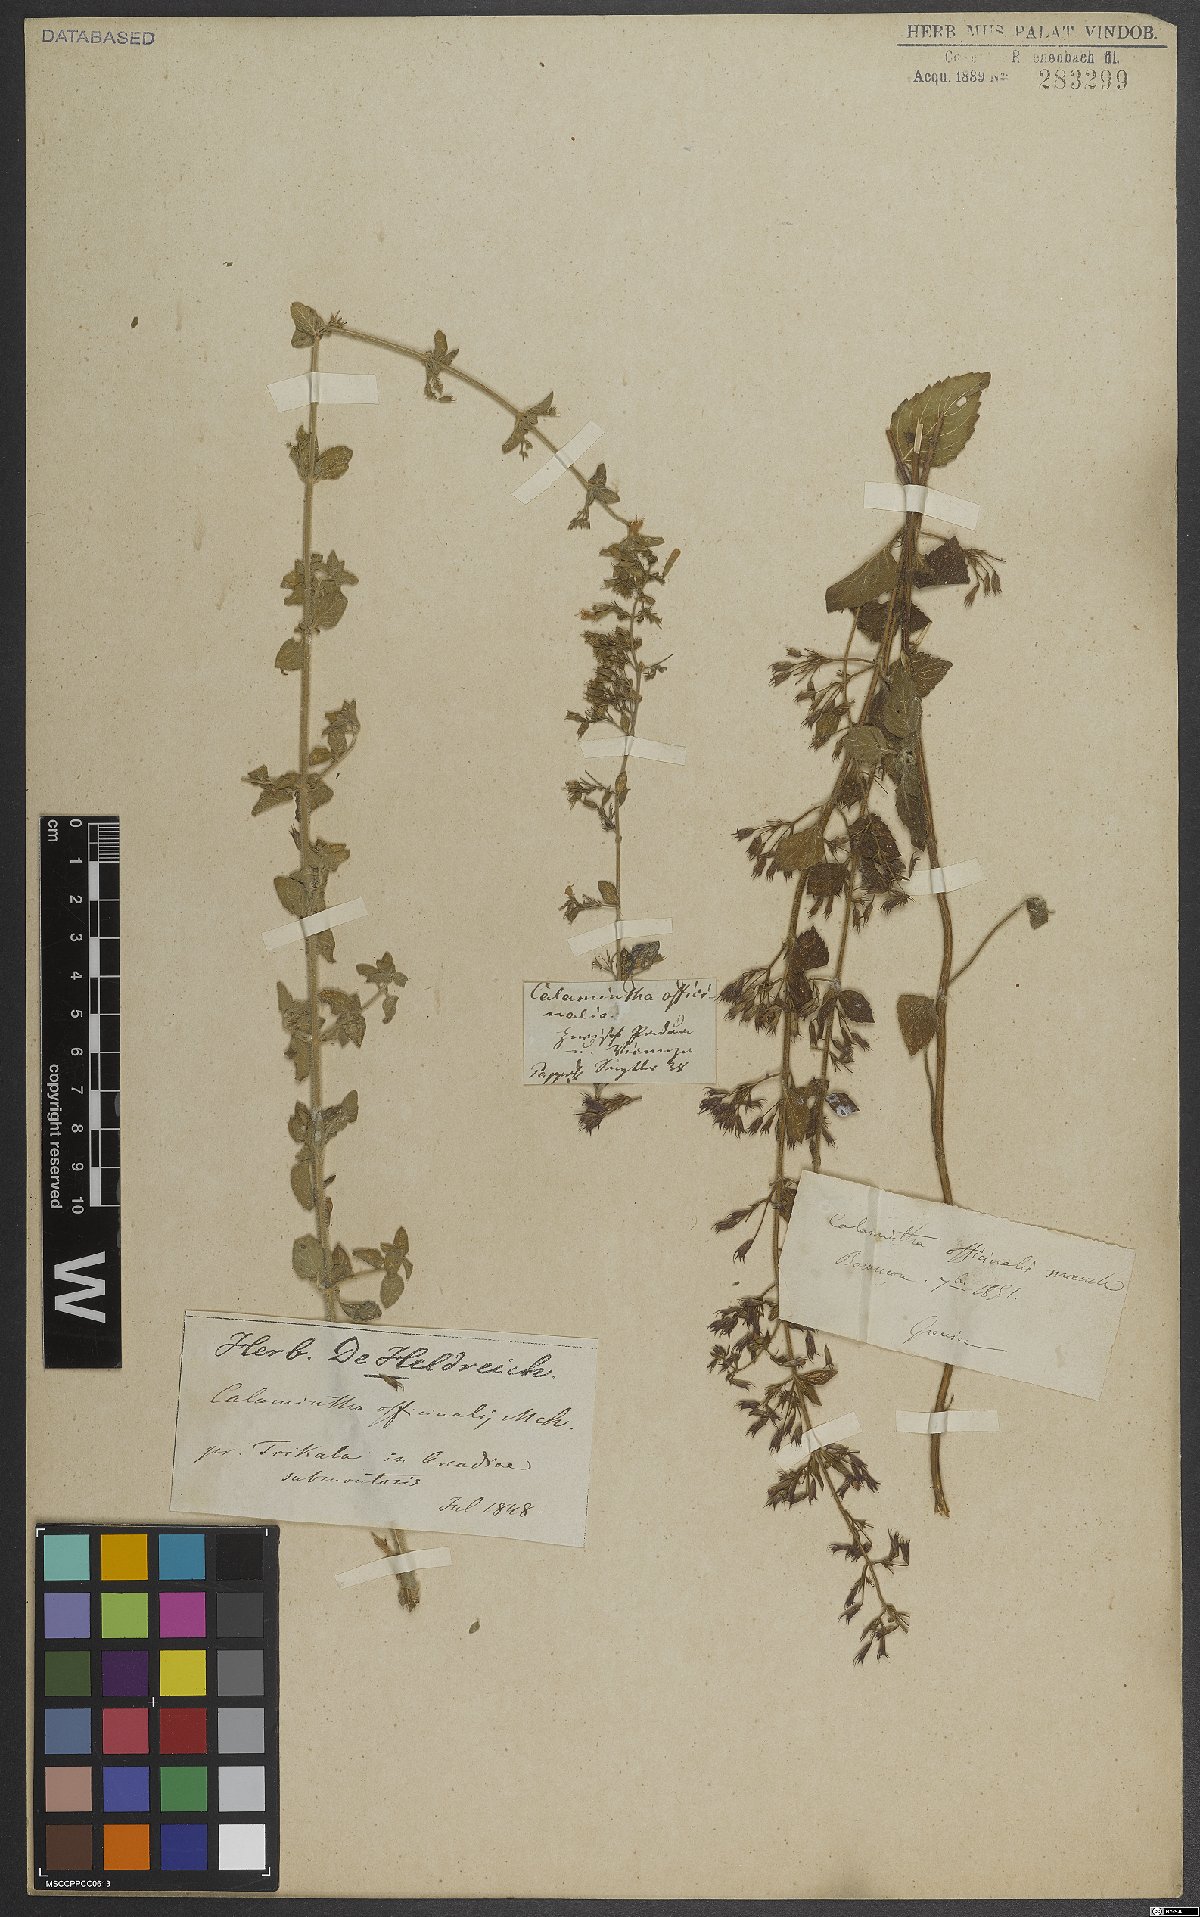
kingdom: Plantae
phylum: Tracheophyta
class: Magnoliopsida
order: Lamiales
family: Lamiaceae
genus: Clinopodium
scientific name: Clinopodium nepeta
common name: Lesser calamint
